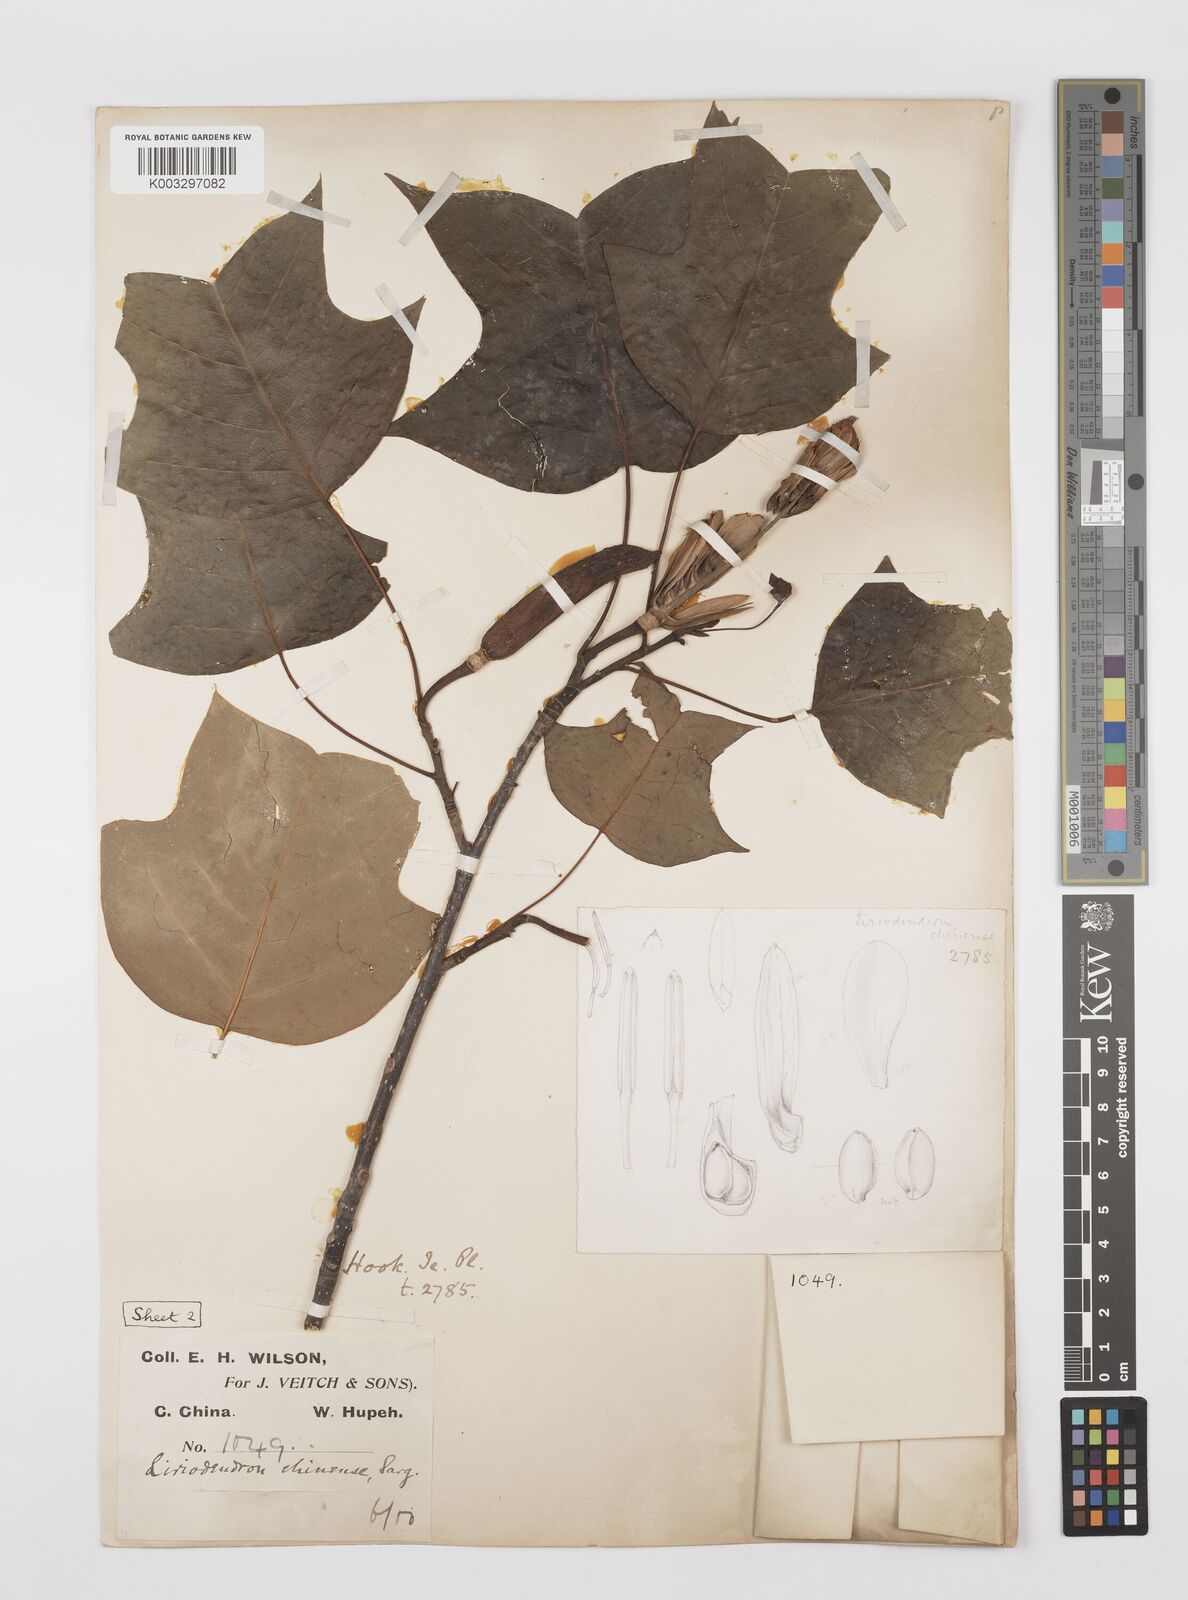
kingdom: Plantae
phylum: Tracheophyta
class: Magnoliopsida
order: Magnoliales
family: Magnoliaceae
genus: Liriodendron
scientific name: Liriodendron chinense
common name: Chinese tuliptree
